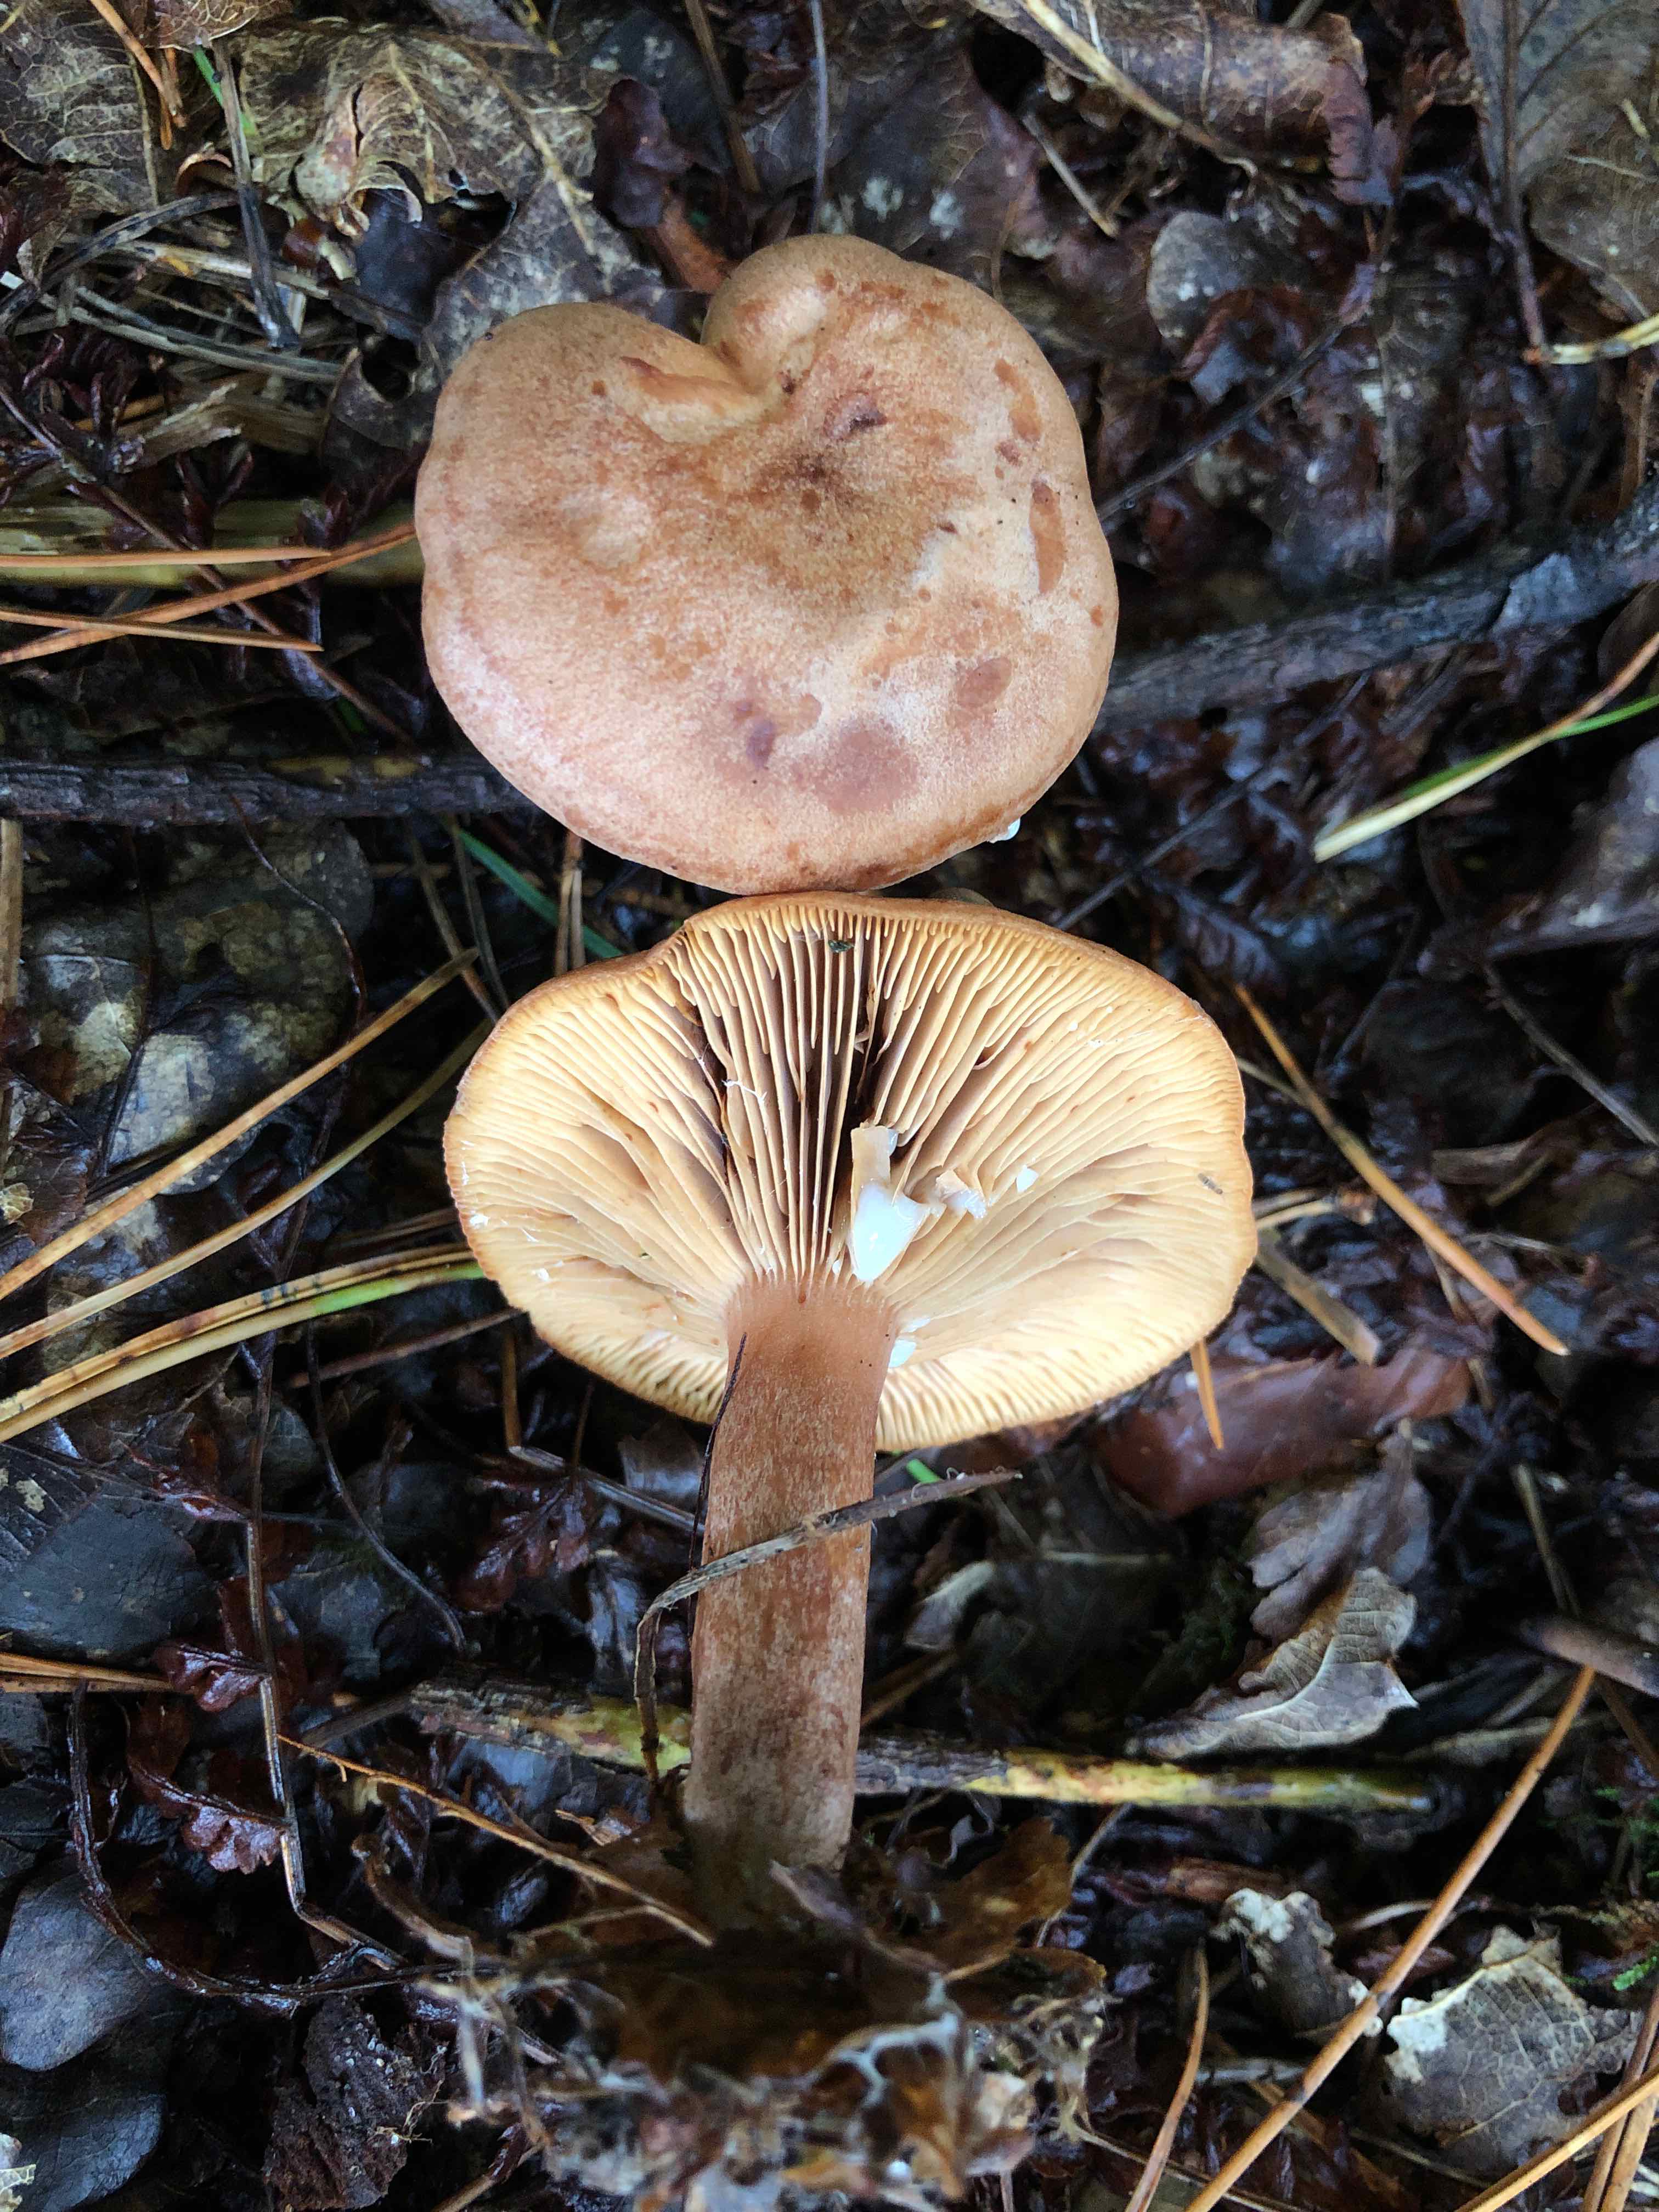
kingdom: Fungi
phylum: Basidiomycota
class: Agaricomycetes
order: Russulales
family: Russulaceae
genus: Lactarius
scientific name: Lactarius quietus
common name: ege-mælkehat
